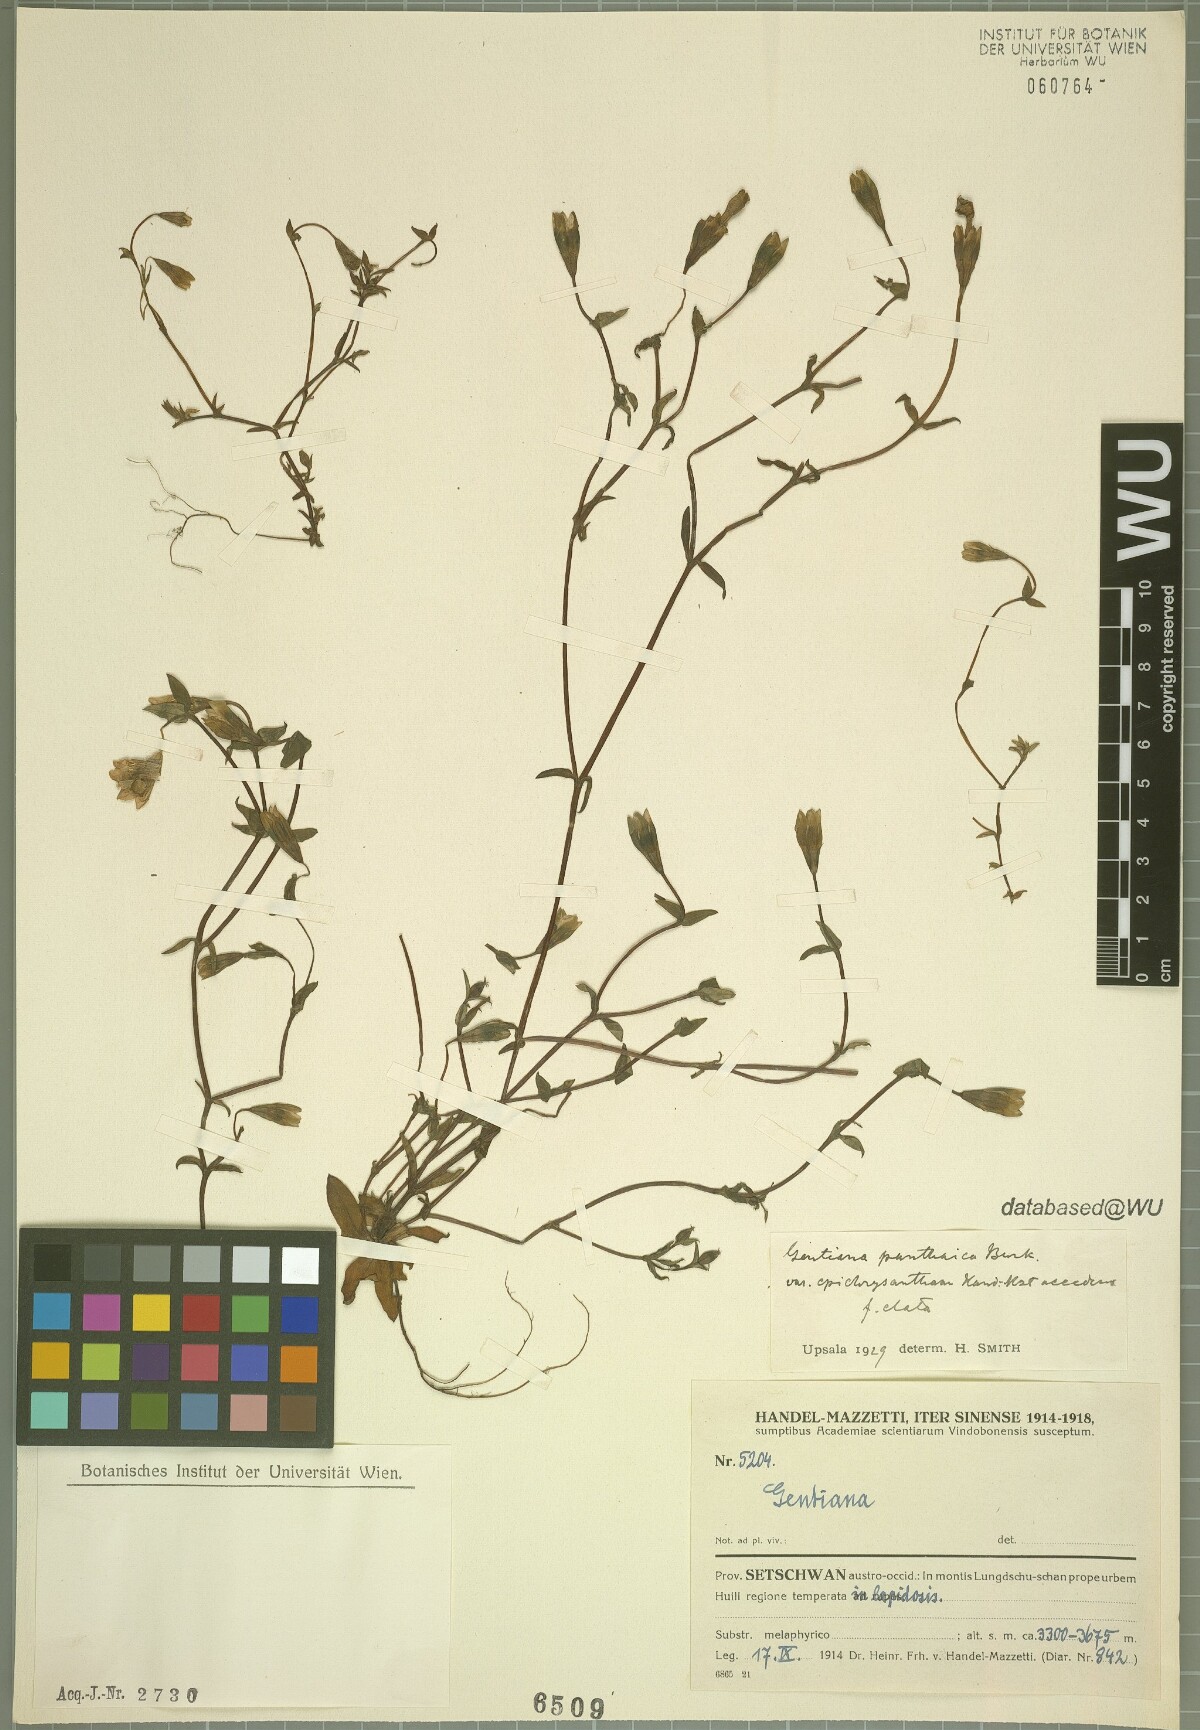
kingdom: Plantae
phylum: Tracheophyta
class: Magnoliopsida
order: Gentianales
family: Gentianaceae
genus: Gentiana
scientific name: Gentiana panthaica
